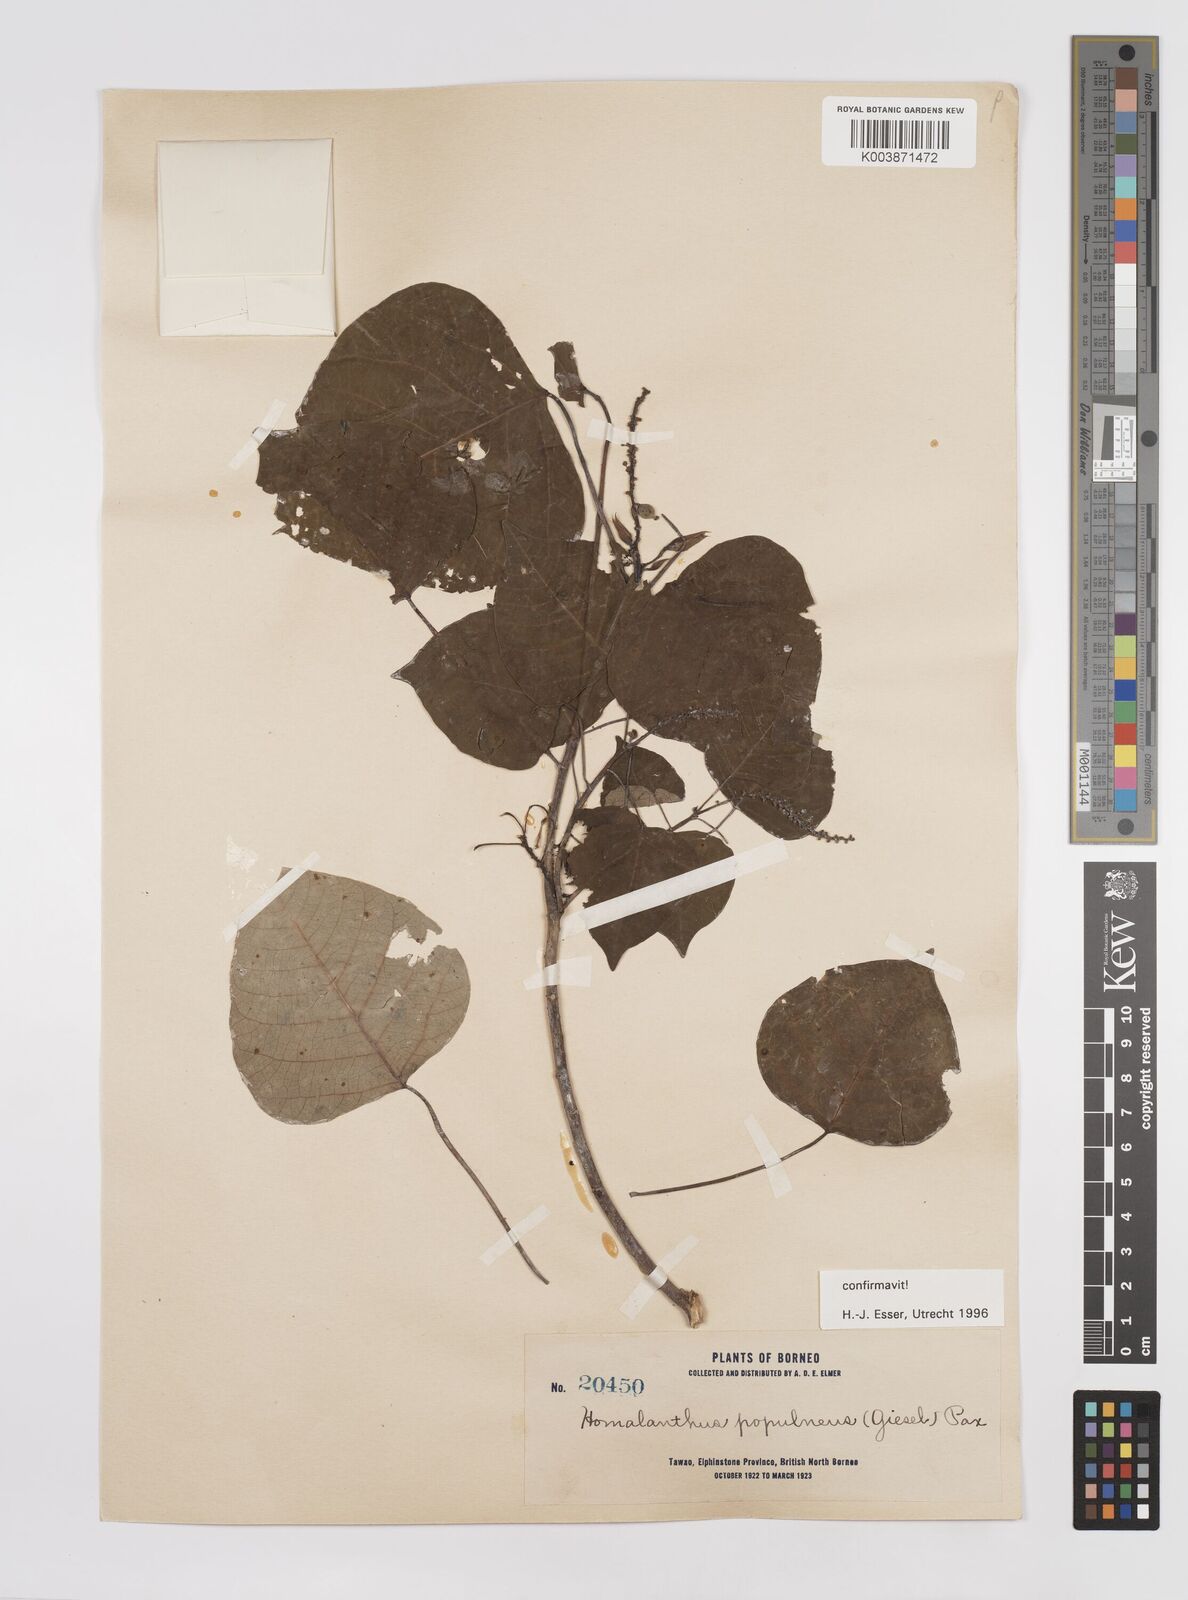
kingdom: Plantae
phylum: Tracheophyta
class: Magnoliopsida
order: Malpighiales
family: Euphorbiaceae
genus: Homalanthus
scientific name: Homalanthus populneus
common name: Spurge
